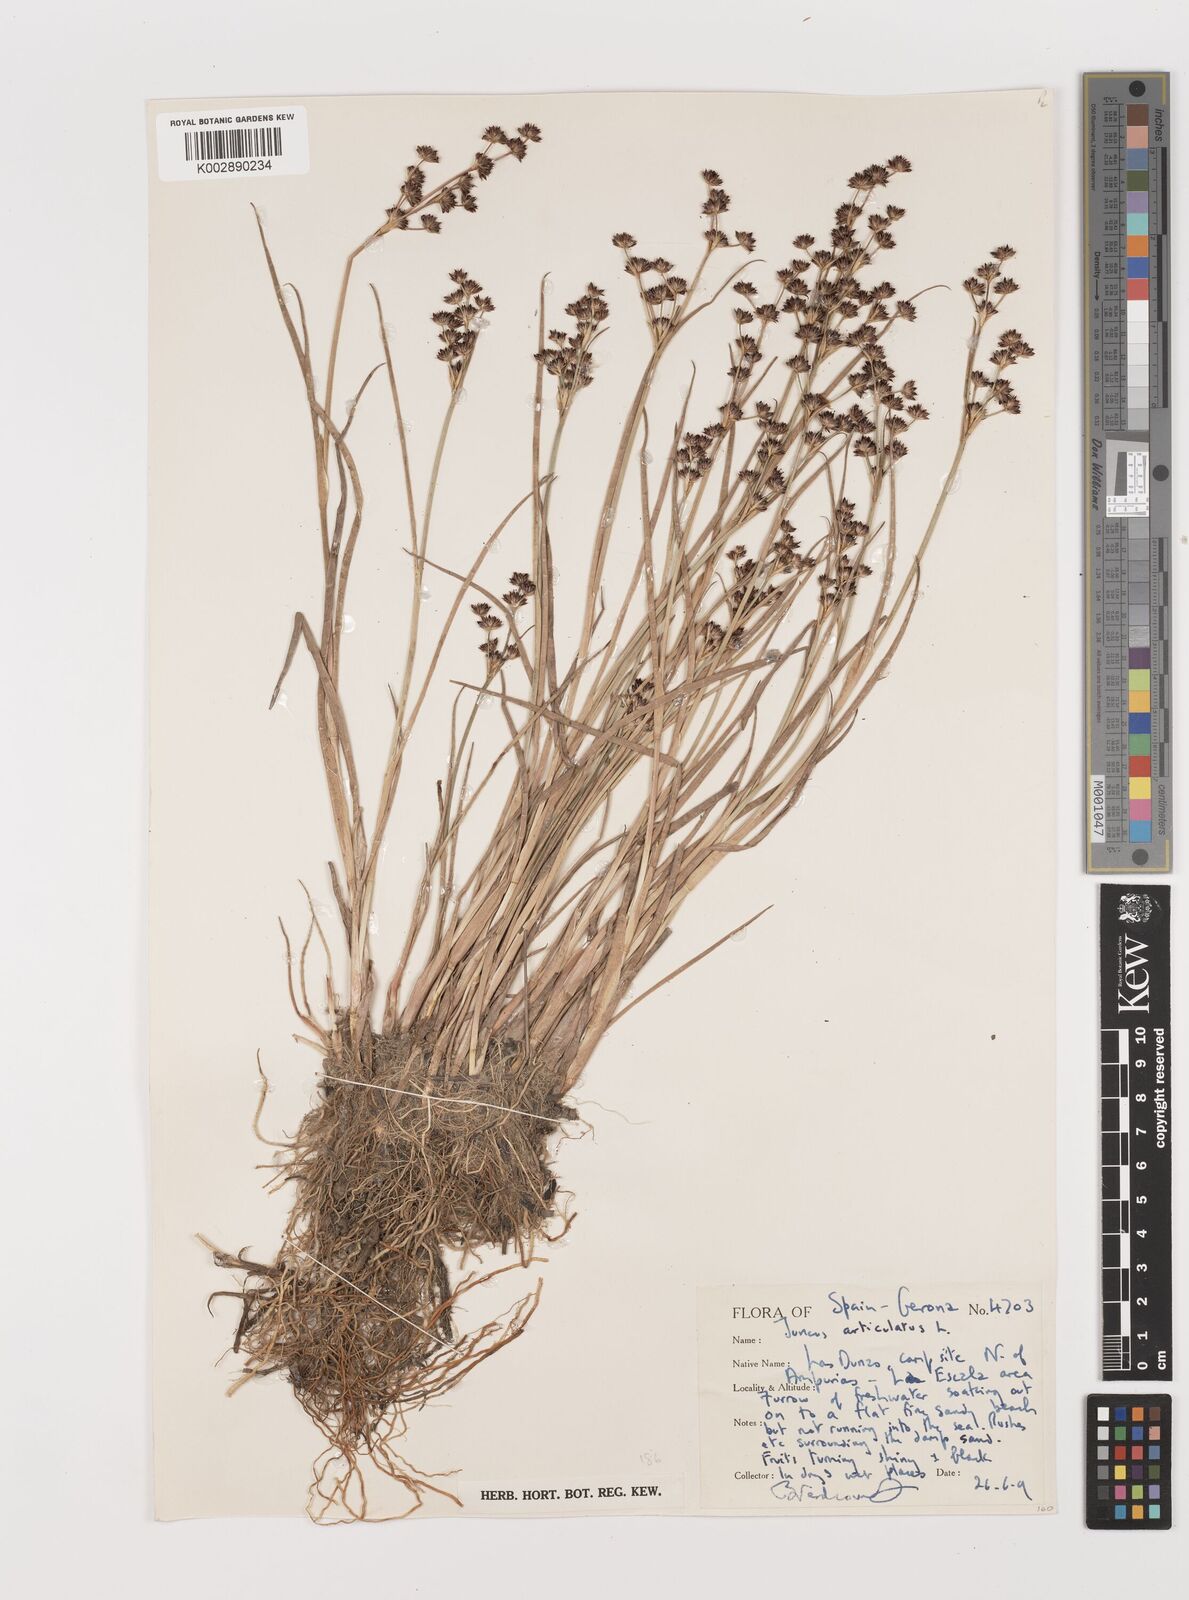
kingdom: Plantae
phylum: Tracheophyta
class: Liliopsida
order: Poales
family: Juncaceae
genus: Juncus
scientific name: Juncus articulatus
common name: Jointed rush
